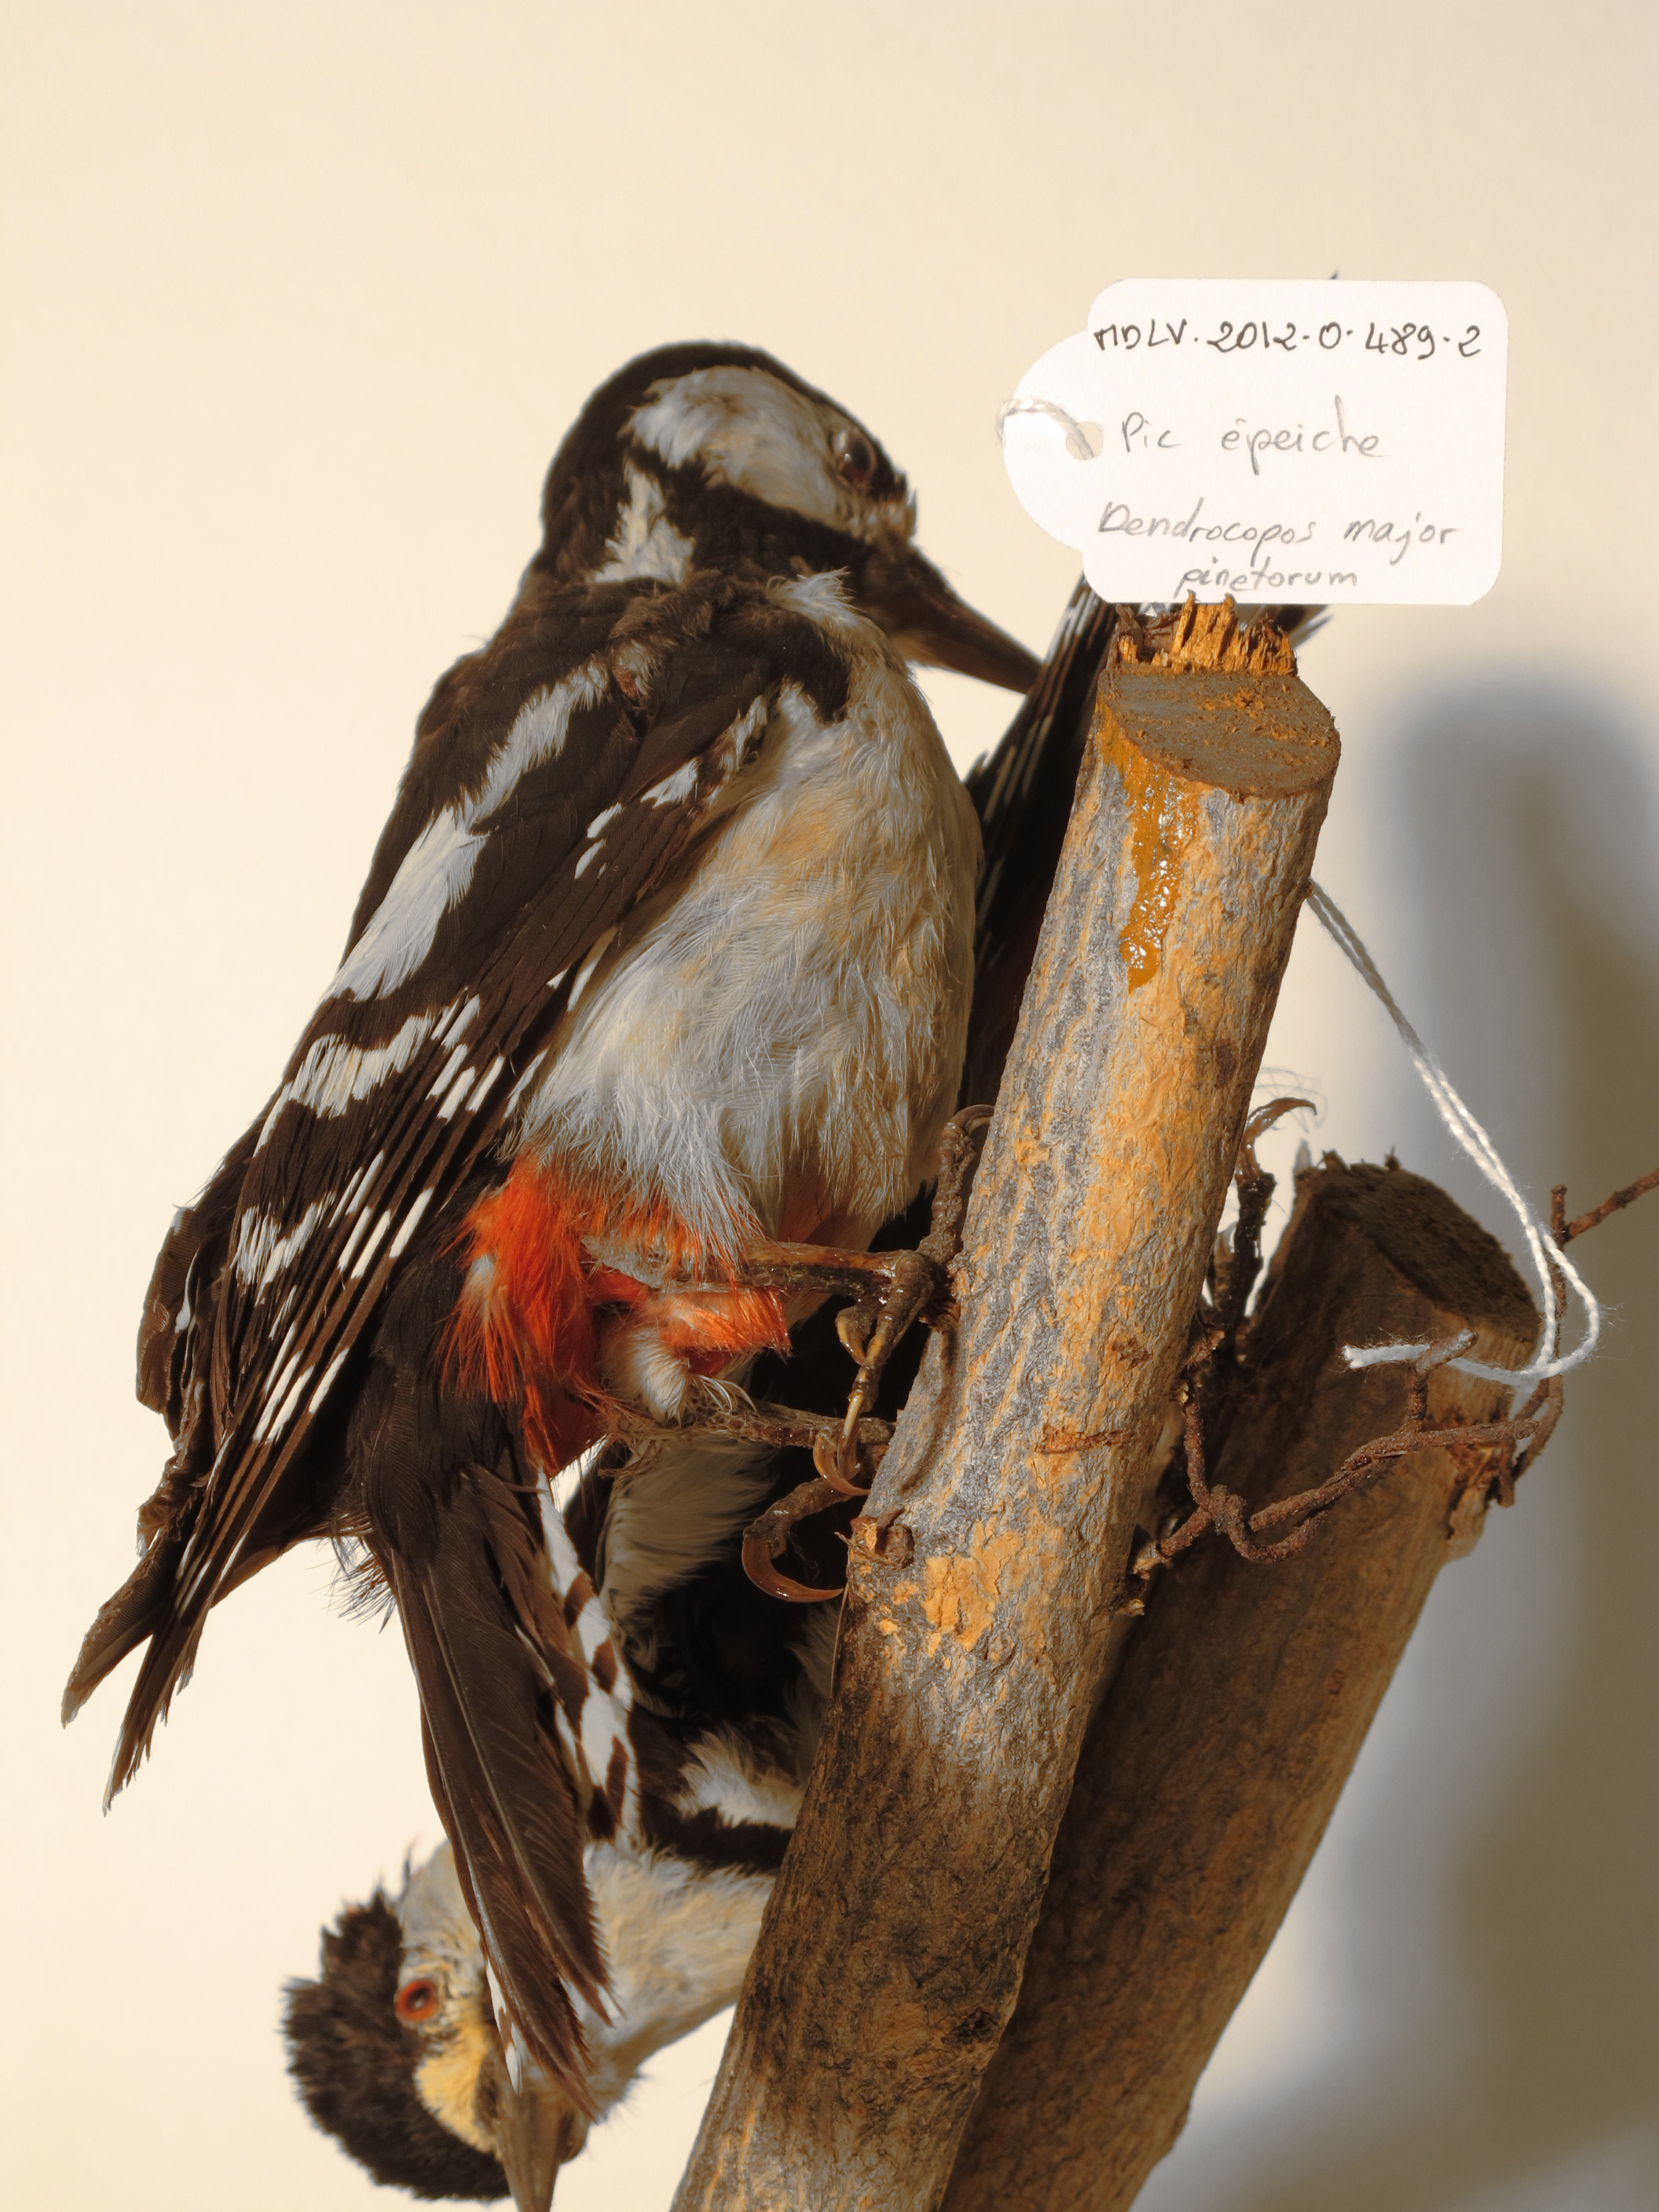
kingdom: Animalia
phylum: Chordata
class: Aves
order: Piciformes
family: Picidae
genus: Dendrocopos
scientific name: Dendrocopos major
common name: Great Spotted Woodpecker
